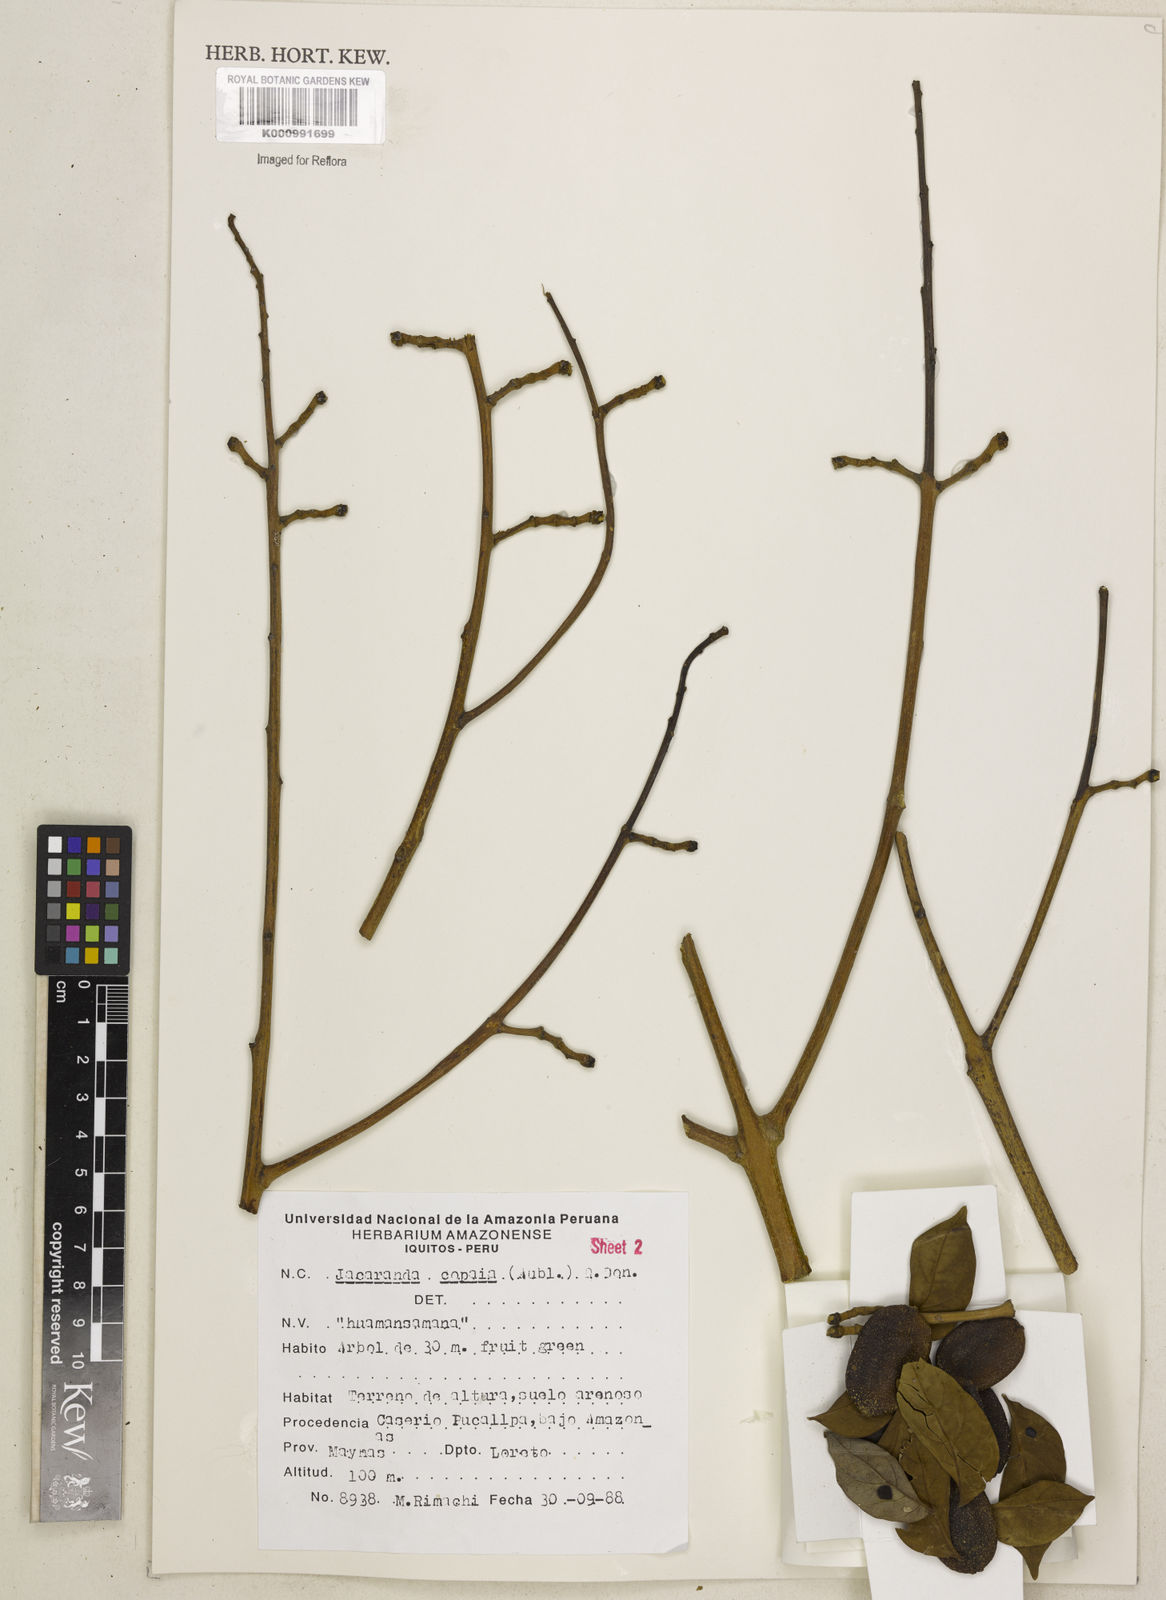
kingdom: Plantae
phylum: Tracheophyta
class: Magnoliopsida
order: Lamiales
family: Bignoniaceae
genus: Jacaranda
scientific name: Jacaranda copaia
